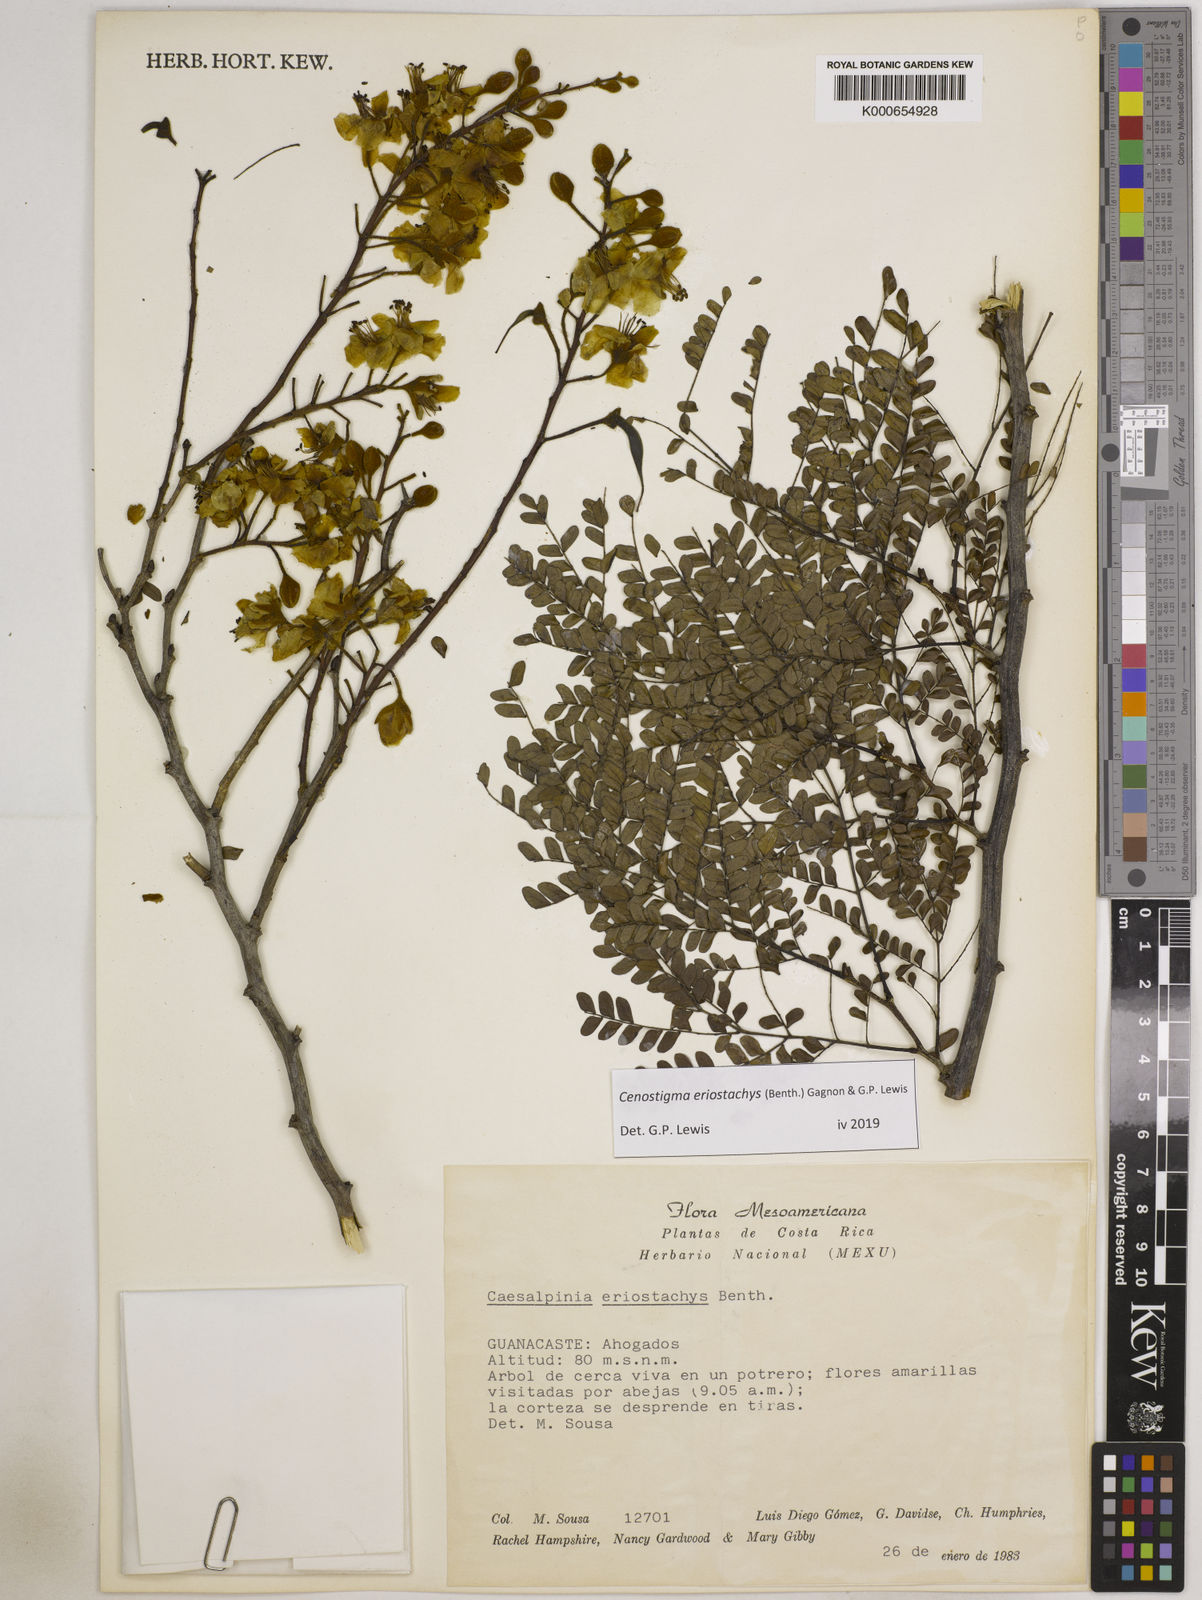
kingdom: Plantae
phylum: Tracheophyta
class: Magnoliopsida
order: Fabales
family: Fabaceae
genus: Cenostigma
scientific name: Cenostigma eriostachys
